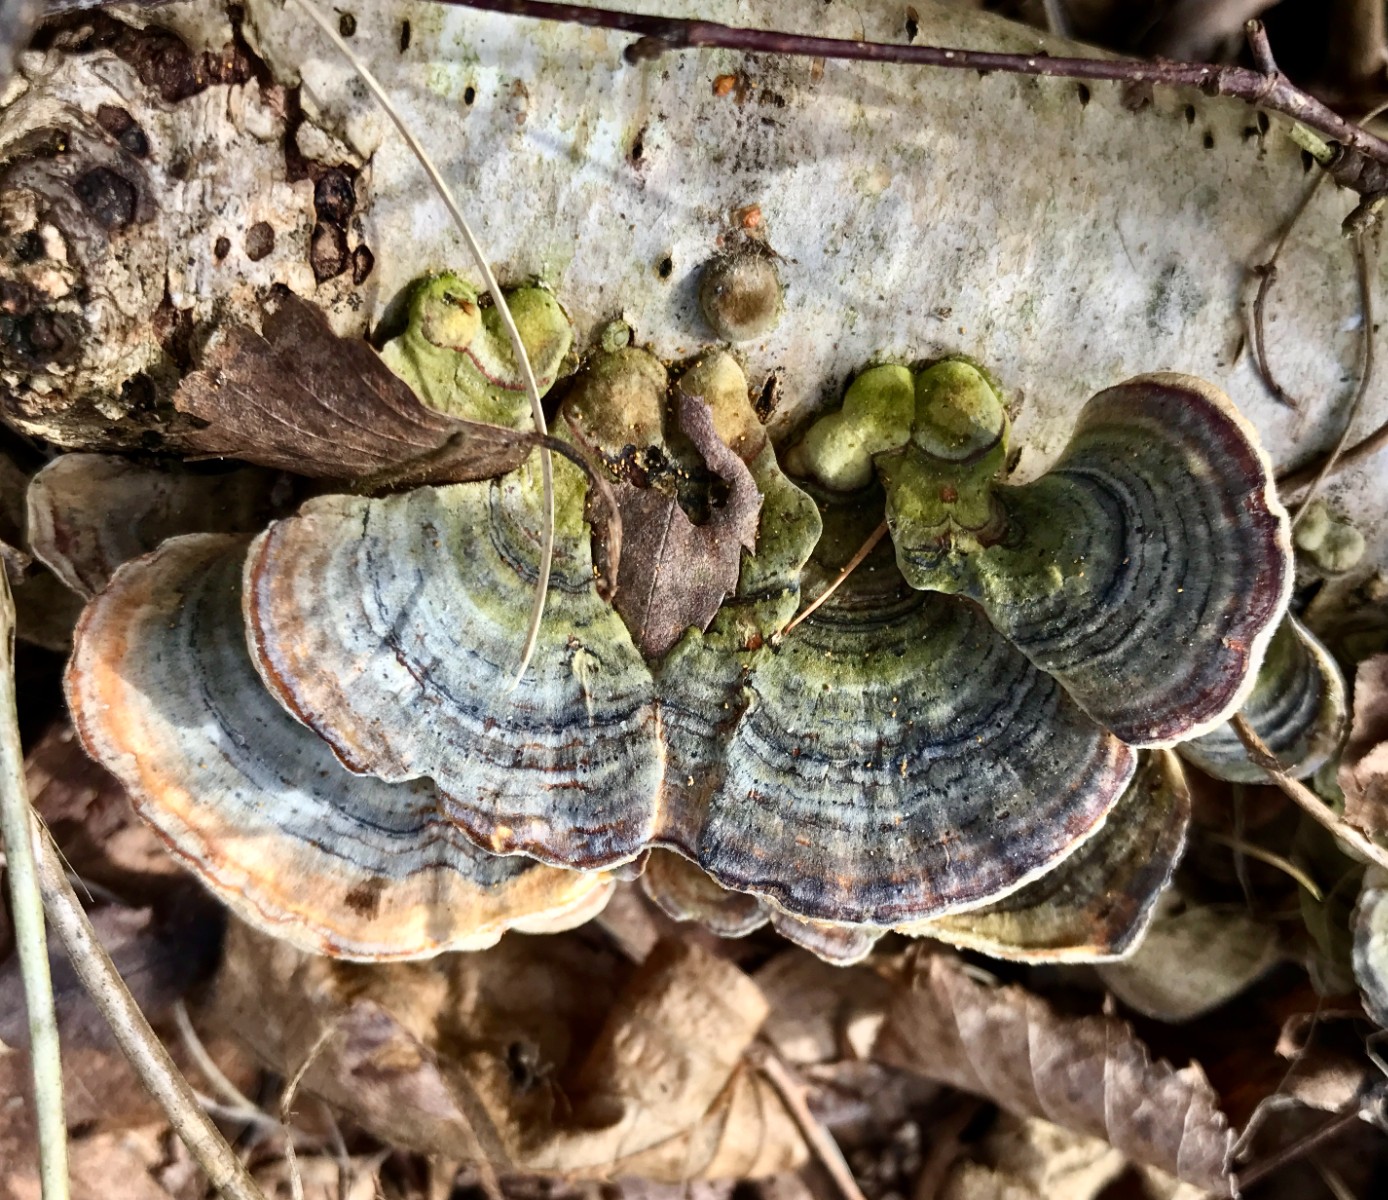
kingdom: Fungi
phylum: Basidiomycota
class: Agaricomycetes
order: Polyporales
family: Polyporaceae
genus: Trametes
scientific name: Trametes versicolor
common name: broget læderporesvamp
